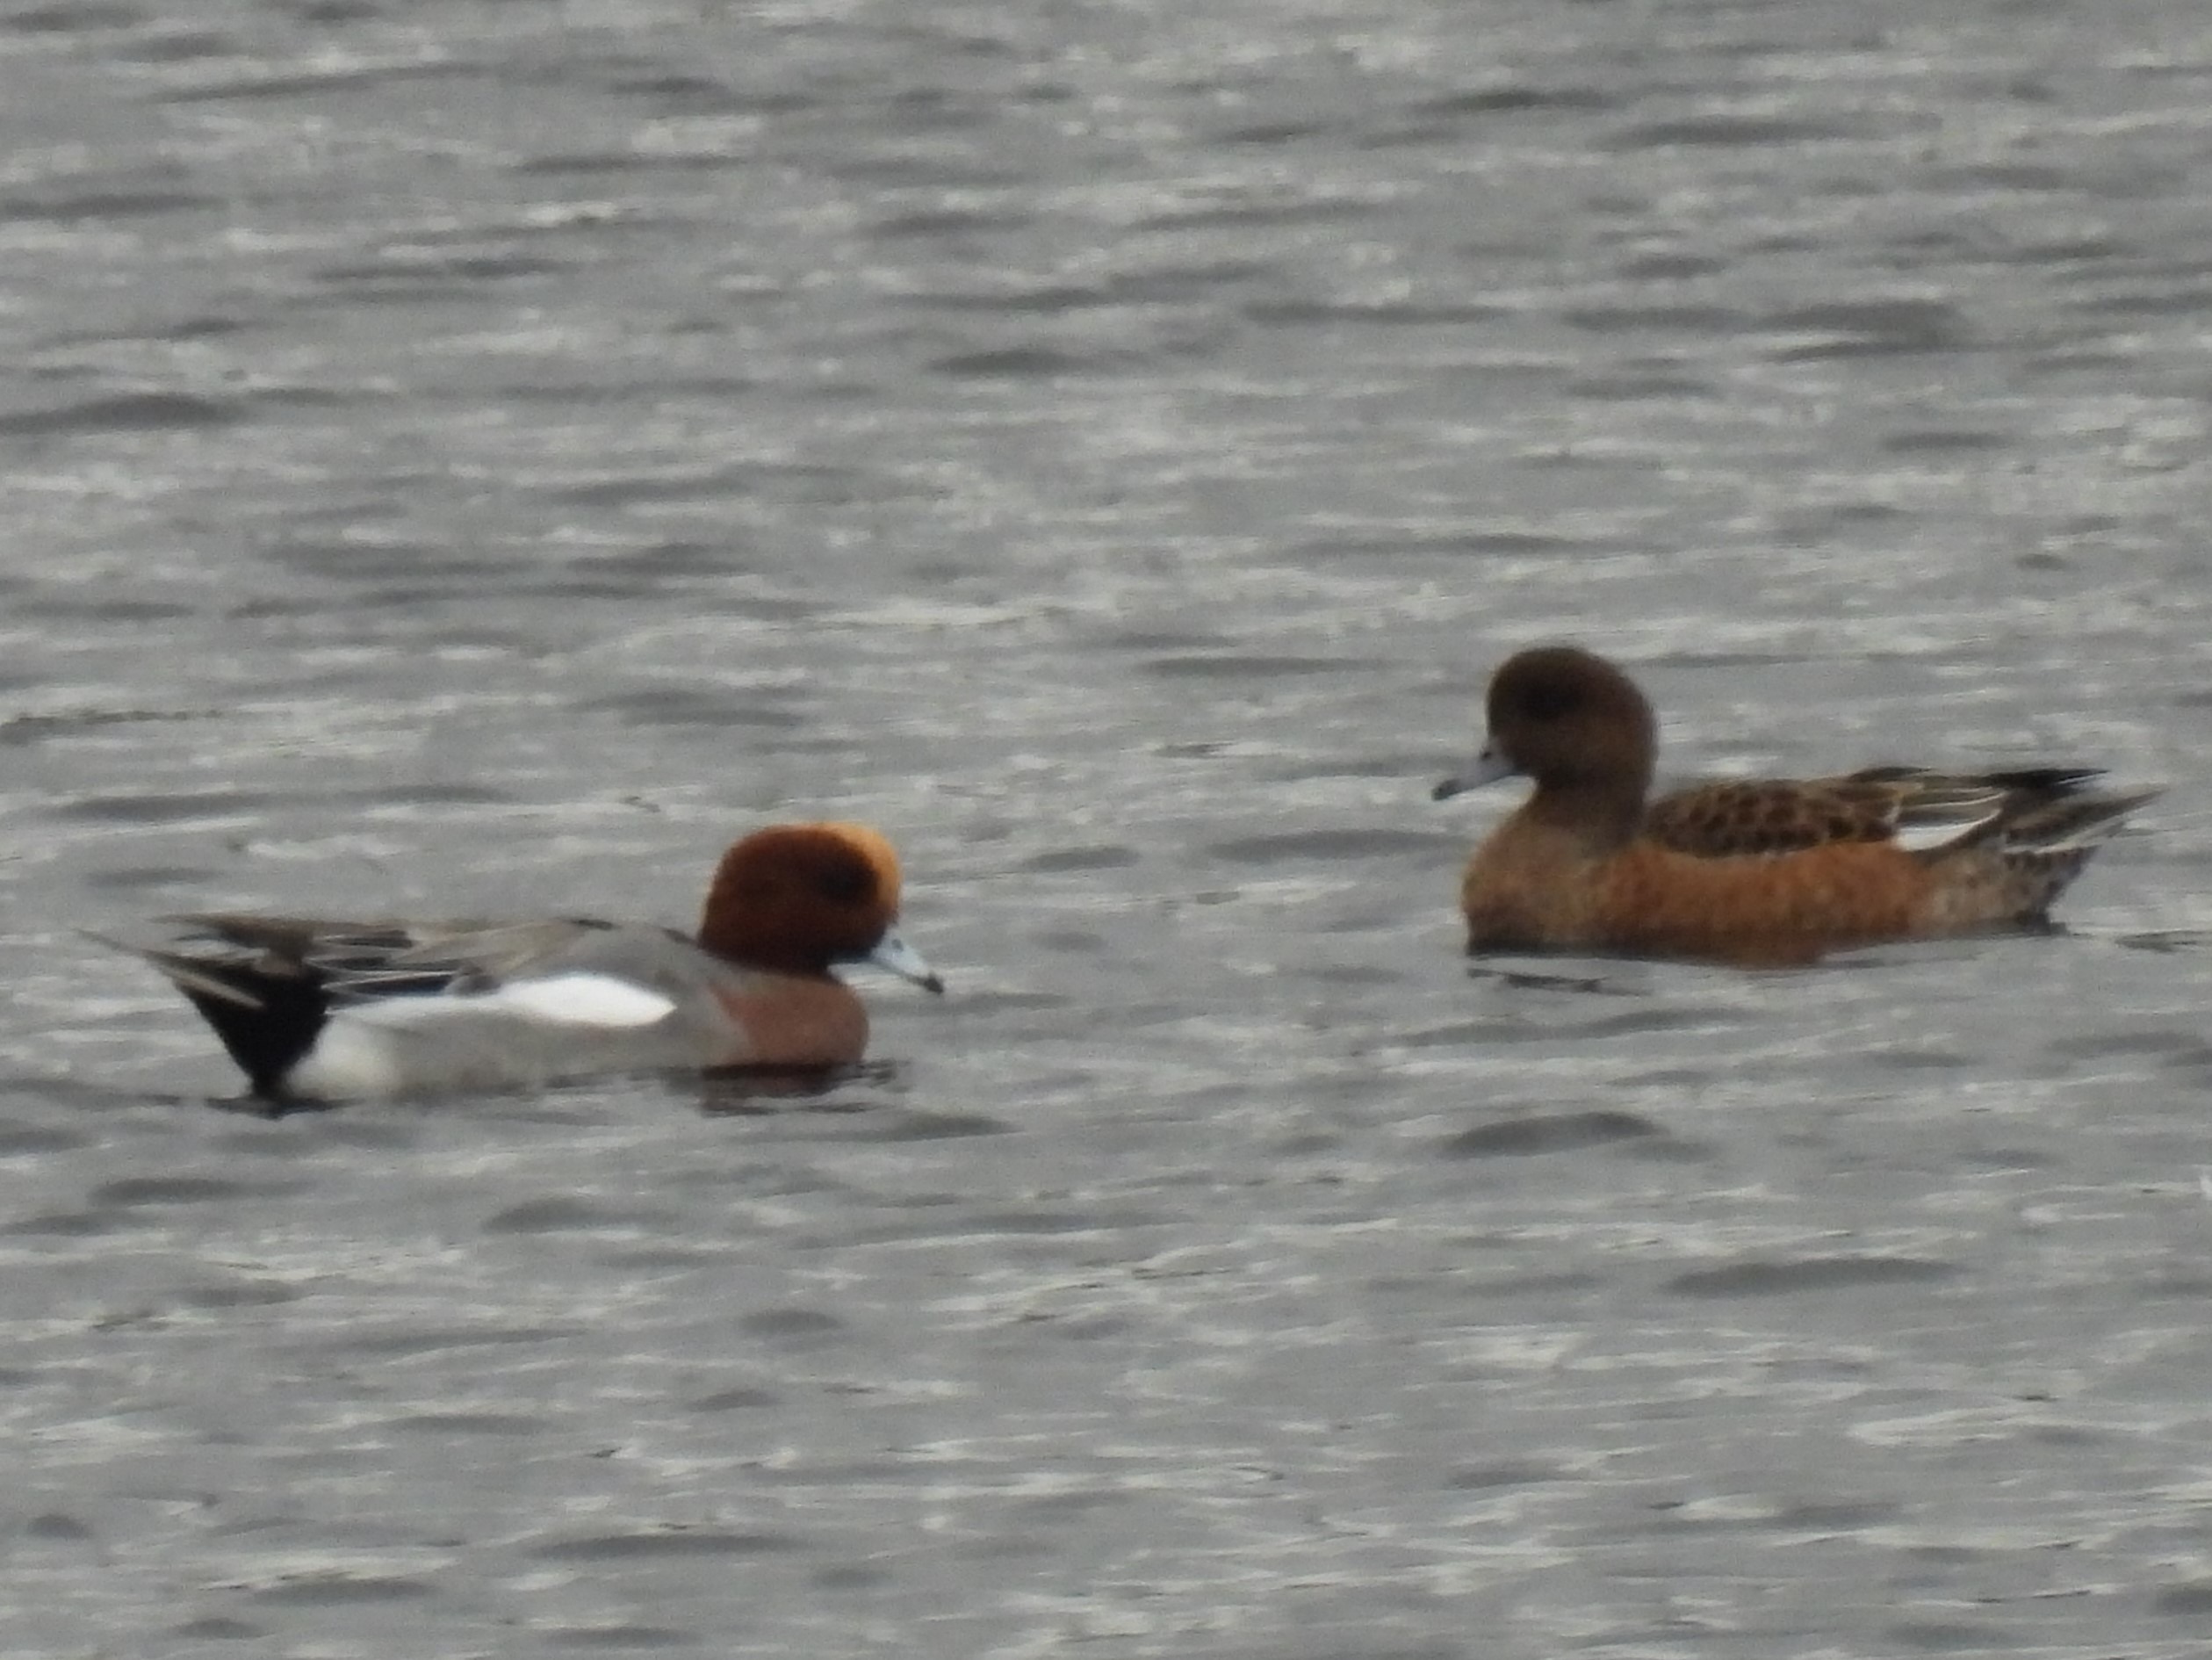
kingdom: Animalia
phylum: Chordata
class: Aves
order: Anseriformes
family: Anatidae
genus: Mareca
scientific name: Mareca penelope
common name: Pibeand
